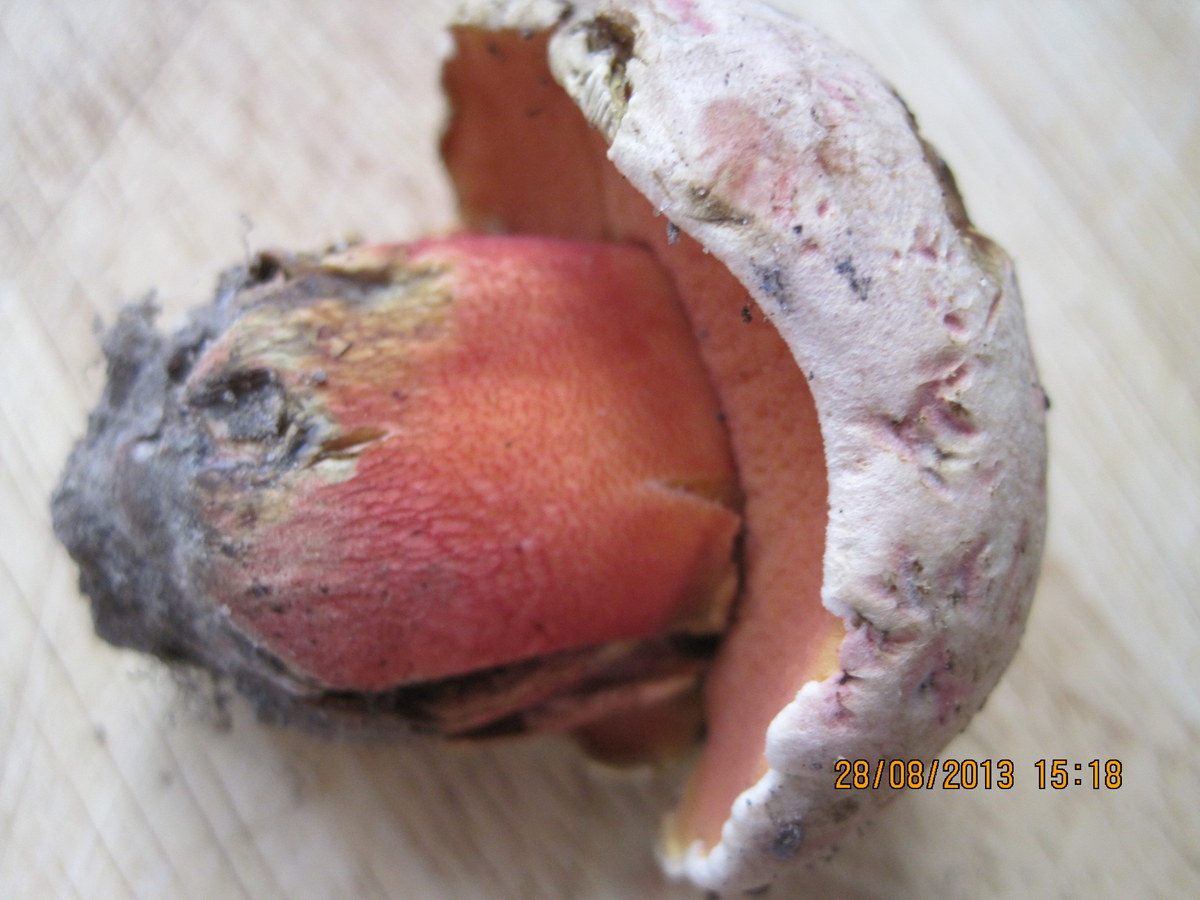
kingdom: Fungi
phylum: Basidiomycota
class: Agaricomycetes
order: Boletales
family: Boletaceae
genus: Rubroboletus
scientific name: Rubroboletus legaliae
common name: djævle-rørhat
